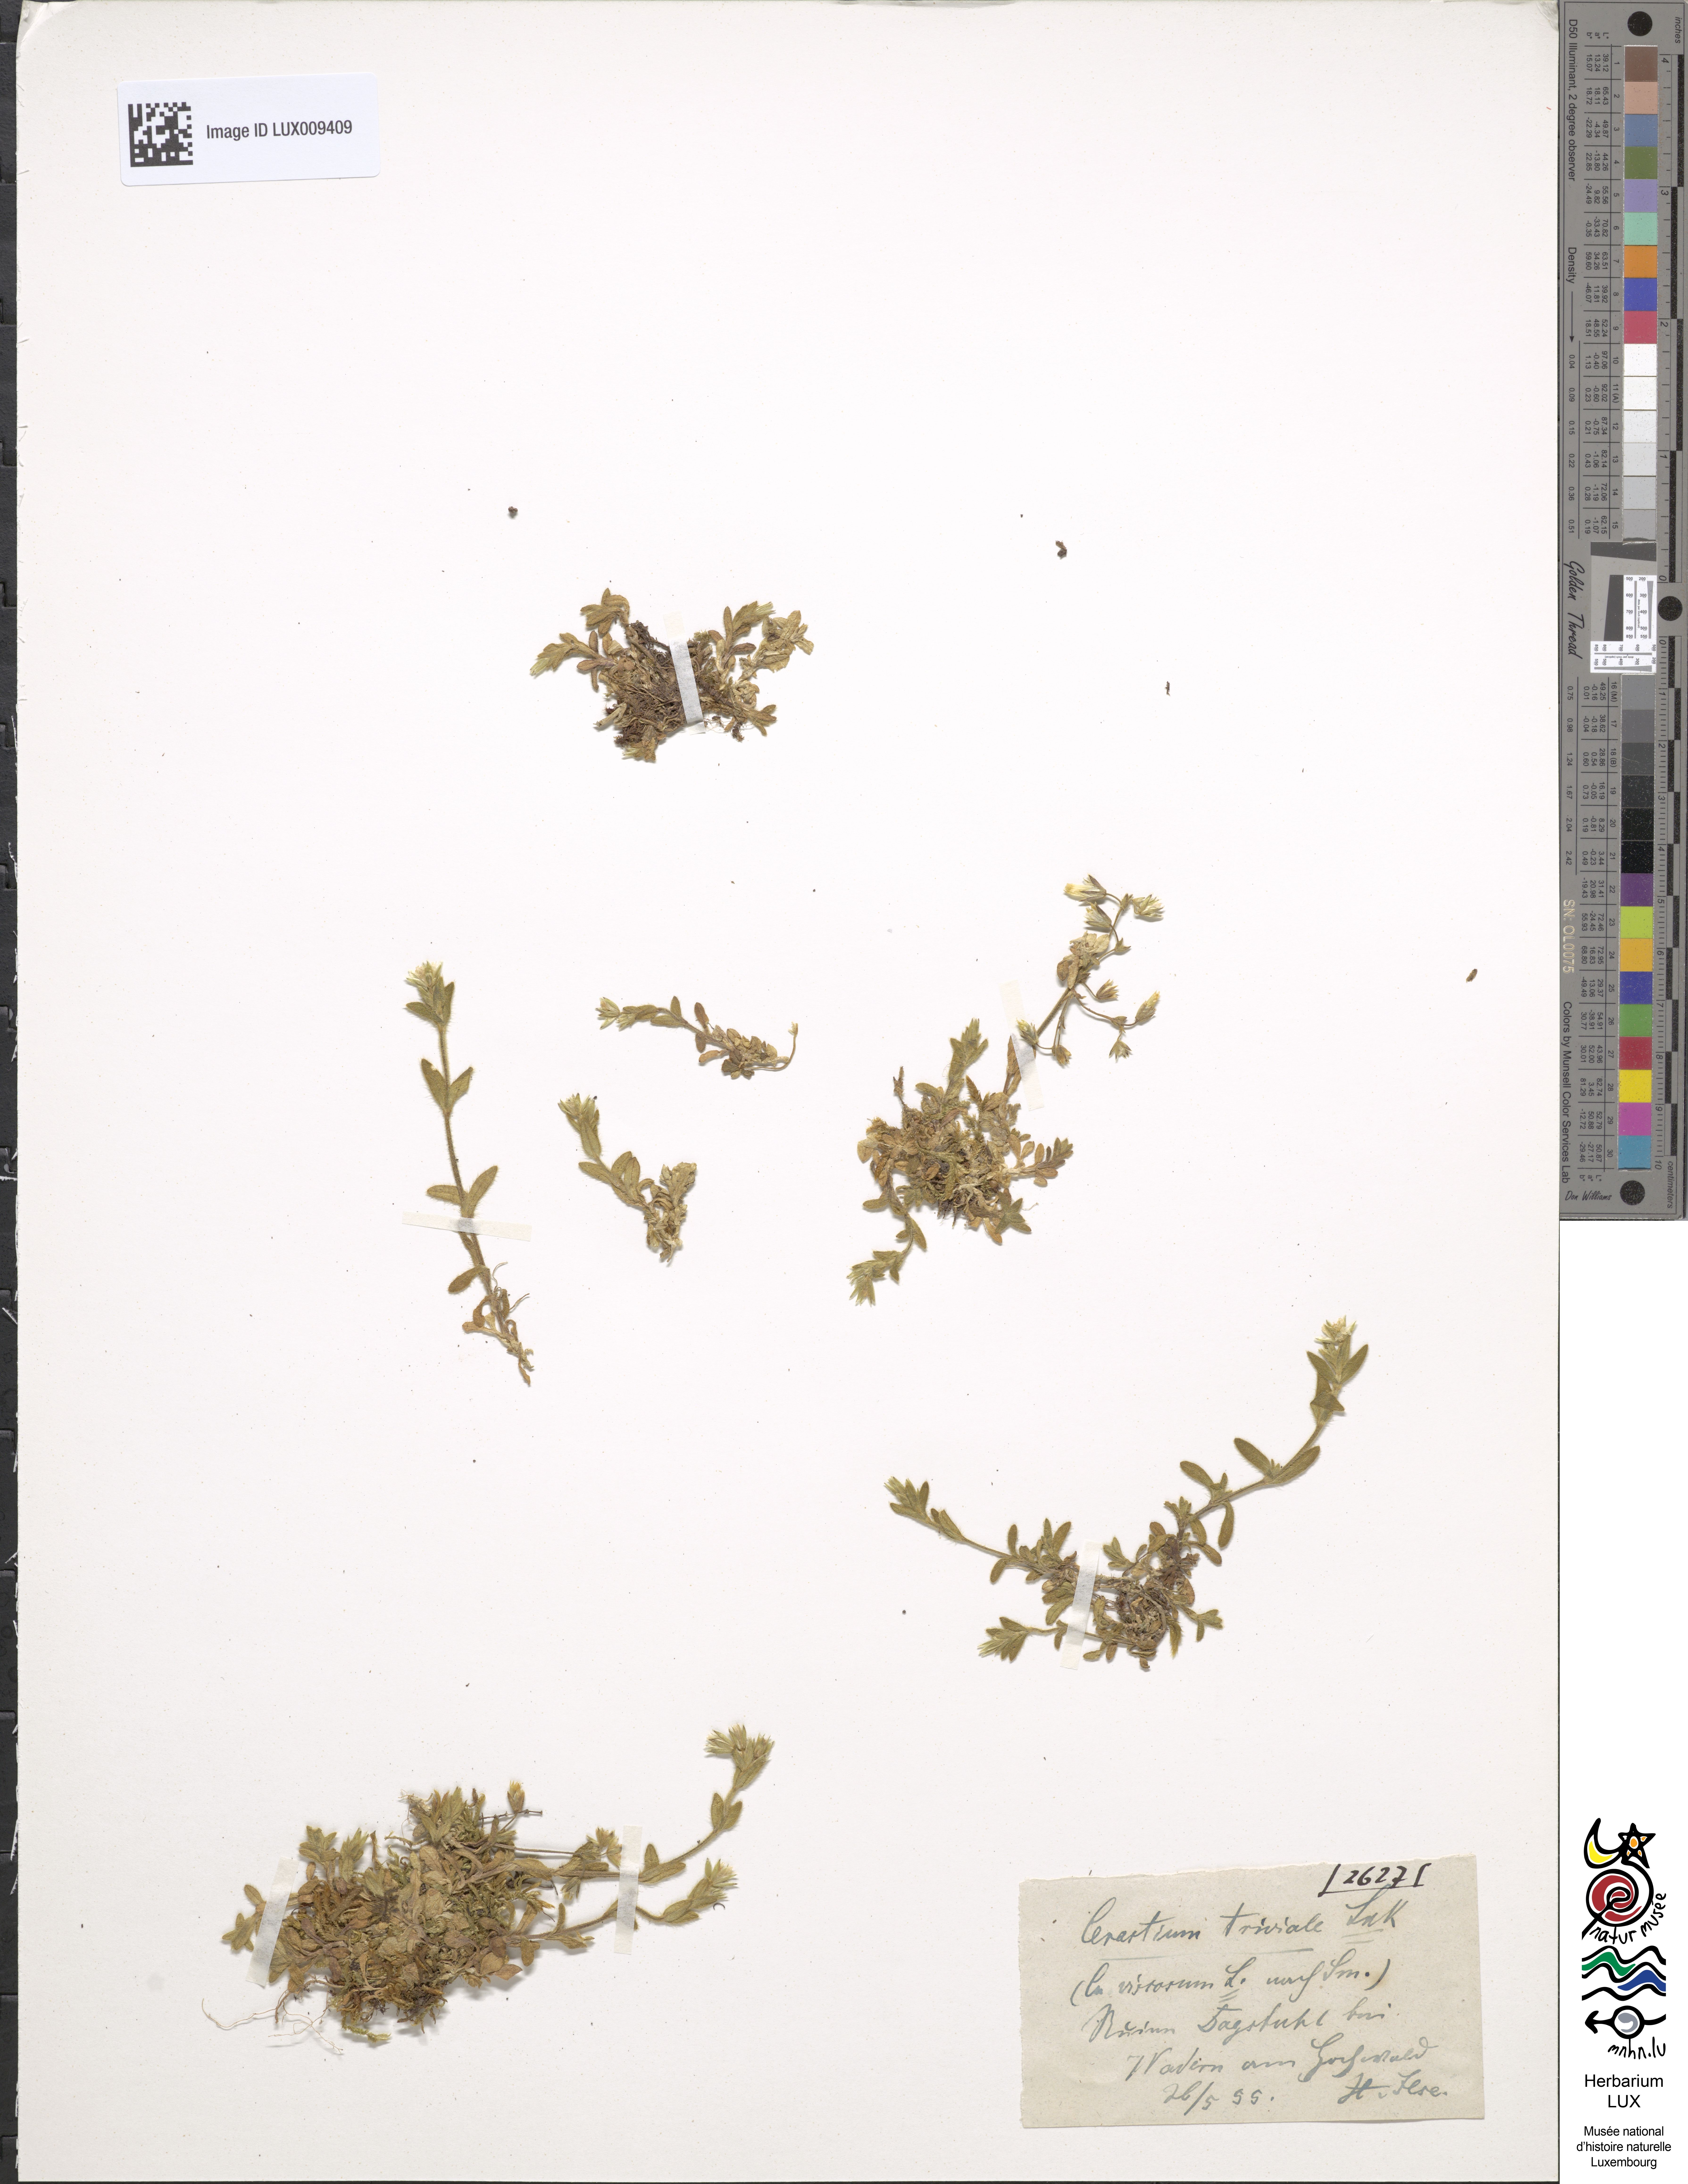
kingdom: Plantae
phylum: Tracheophyta
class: Magnoliopsida
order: Caryophyllales
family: Caryophyllaceae
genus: Cerastium
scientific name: Cerastium holosteoides
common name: Big chickweed
